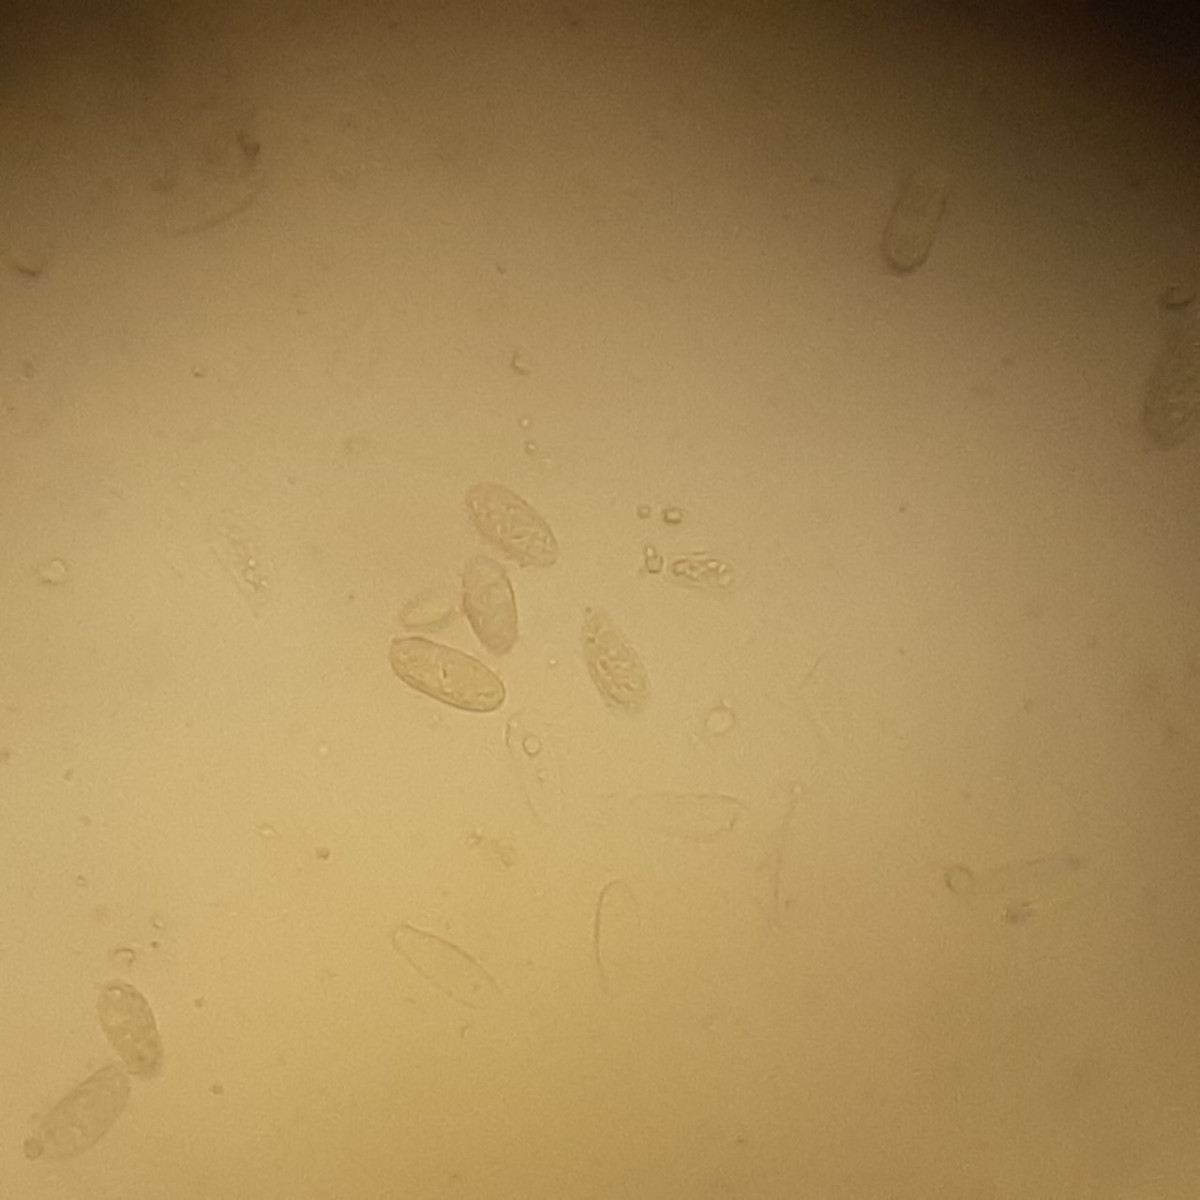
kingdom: Fungi
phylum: Ascomycota
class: Leotiomycetes
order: Helotiales
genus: Cryptocline
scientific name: Cryptocline taxicola
